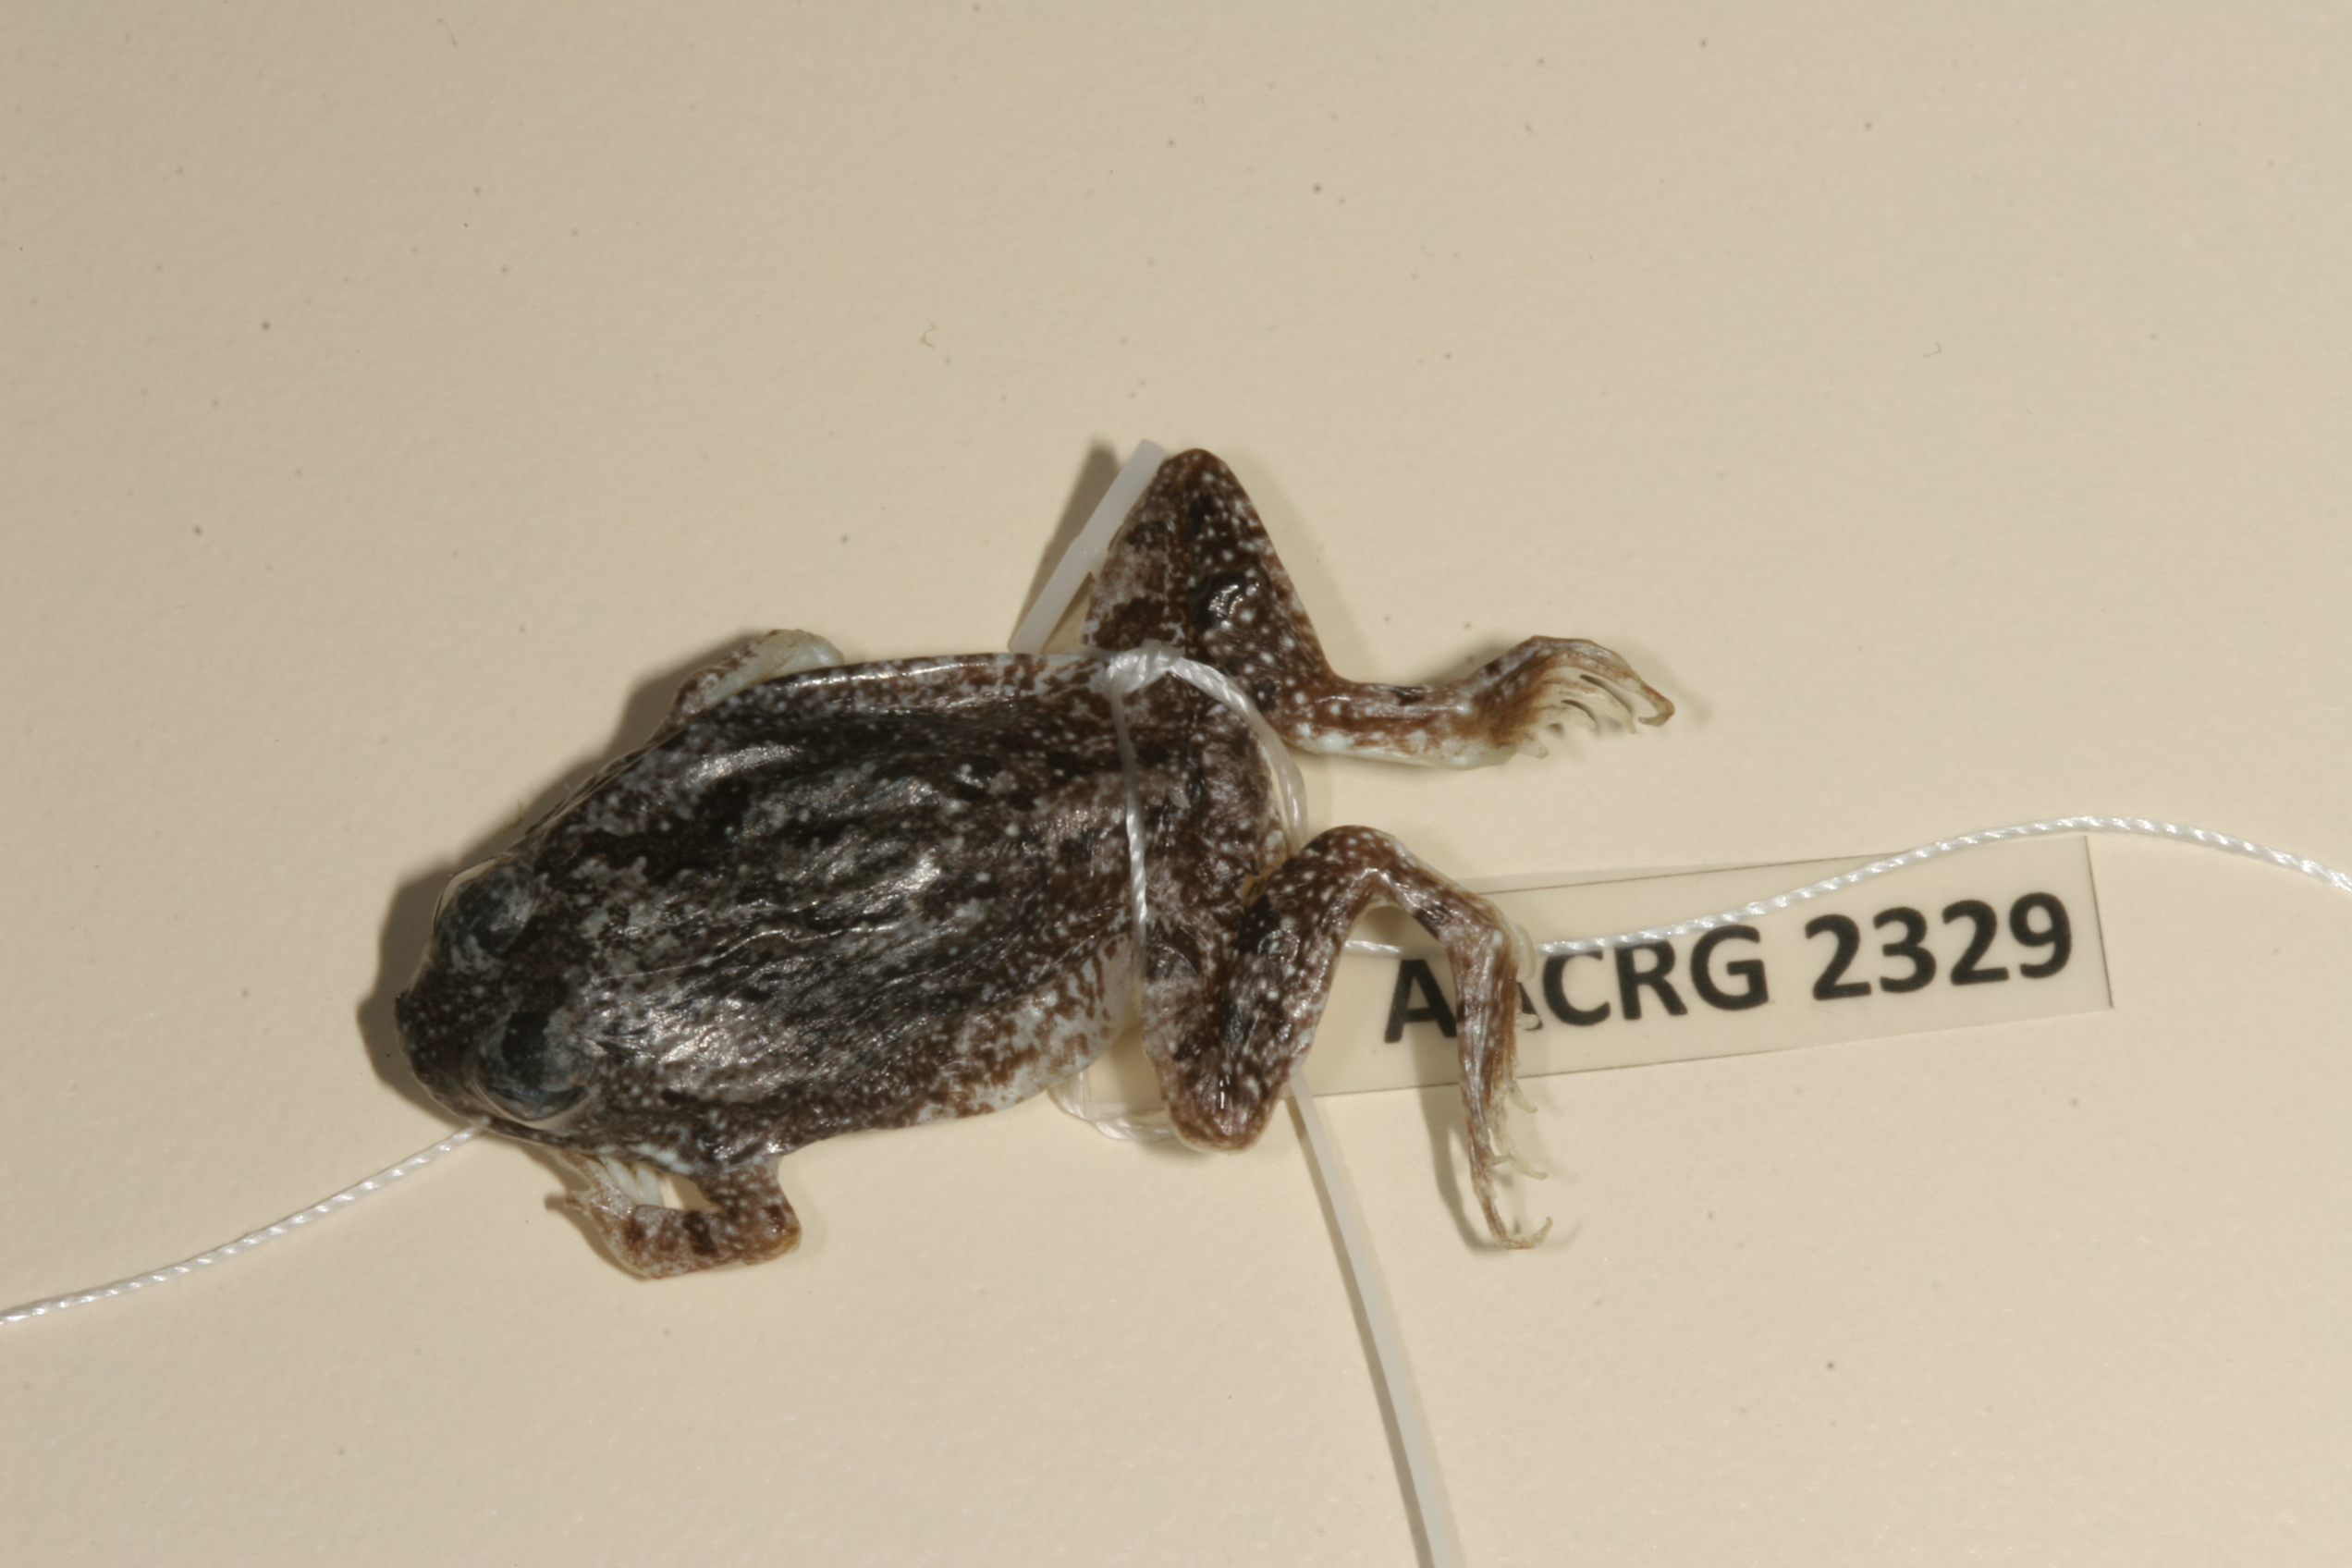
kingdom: Animalia
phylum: Chordata
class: Amphibia
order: Anura
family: Pyxicephalidae
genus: Tomopterna
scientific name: Tomopterna cryptotis
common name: Catequero bullfrog
